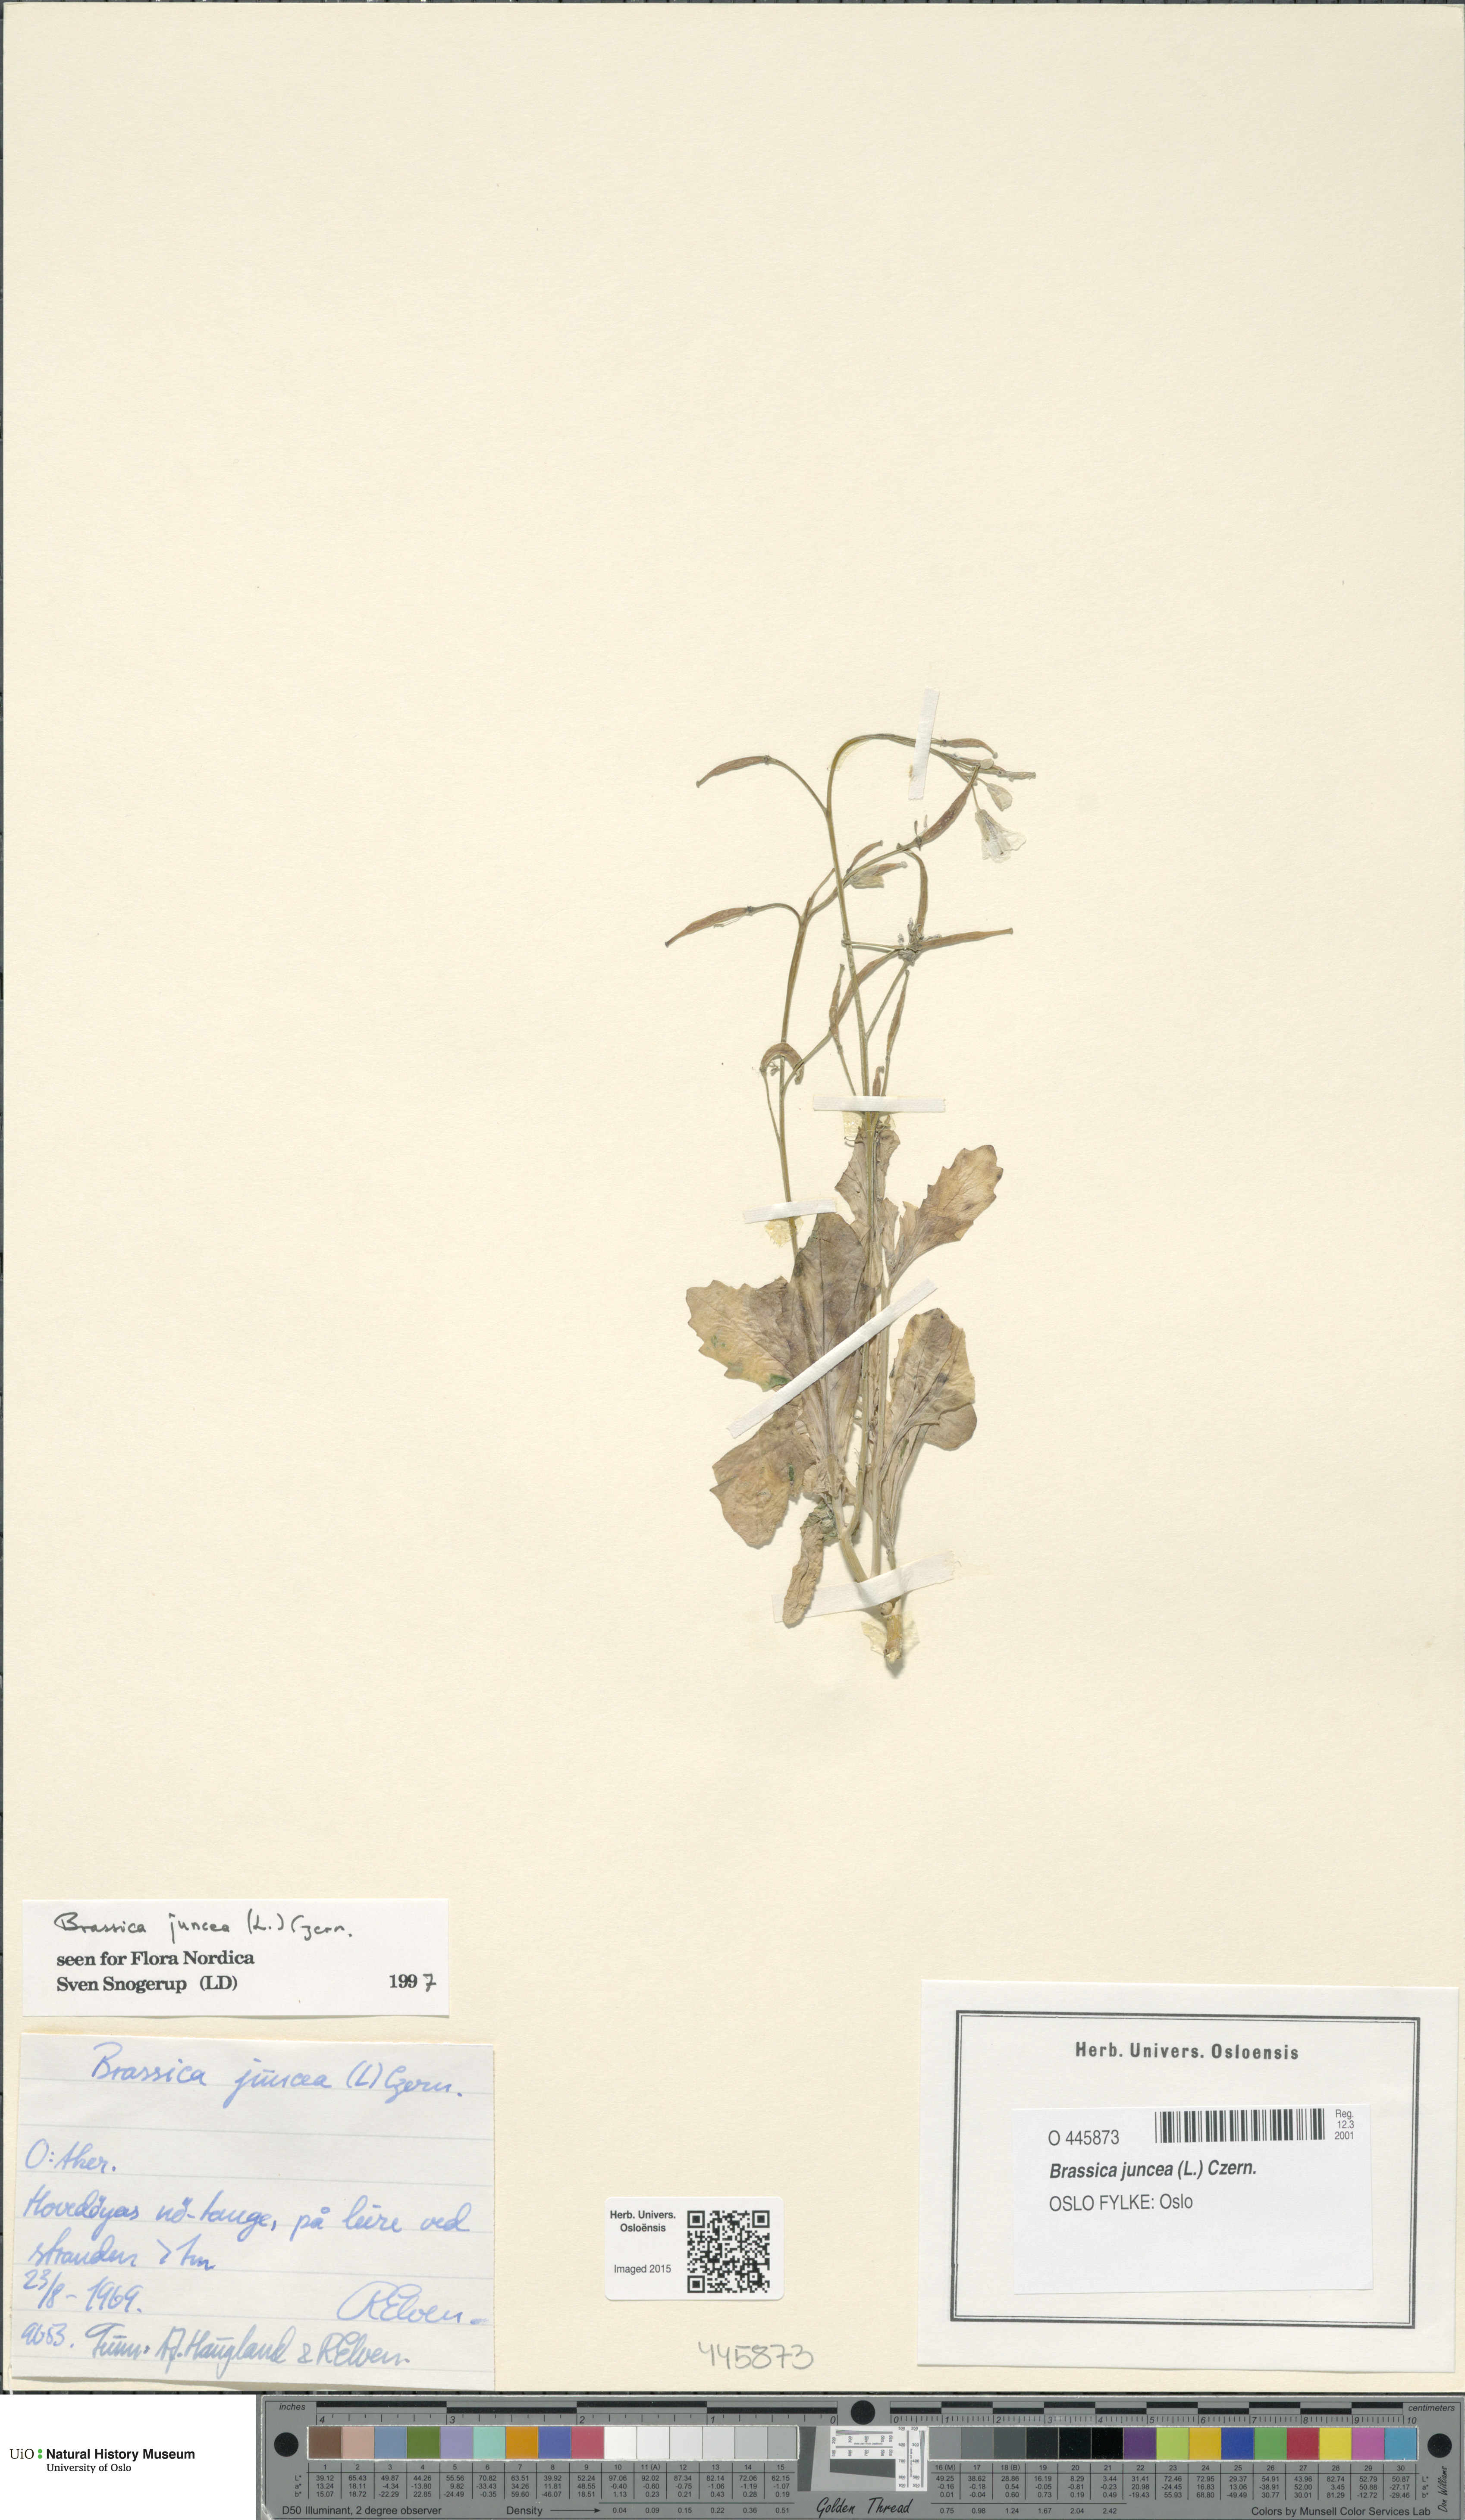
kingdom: Plantae
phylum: Tracheophyta
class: Magnoliopsida
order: Brassicales
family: Brassicaceae
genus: Brassica
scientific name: Brassica juncea
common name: Brown mustard
